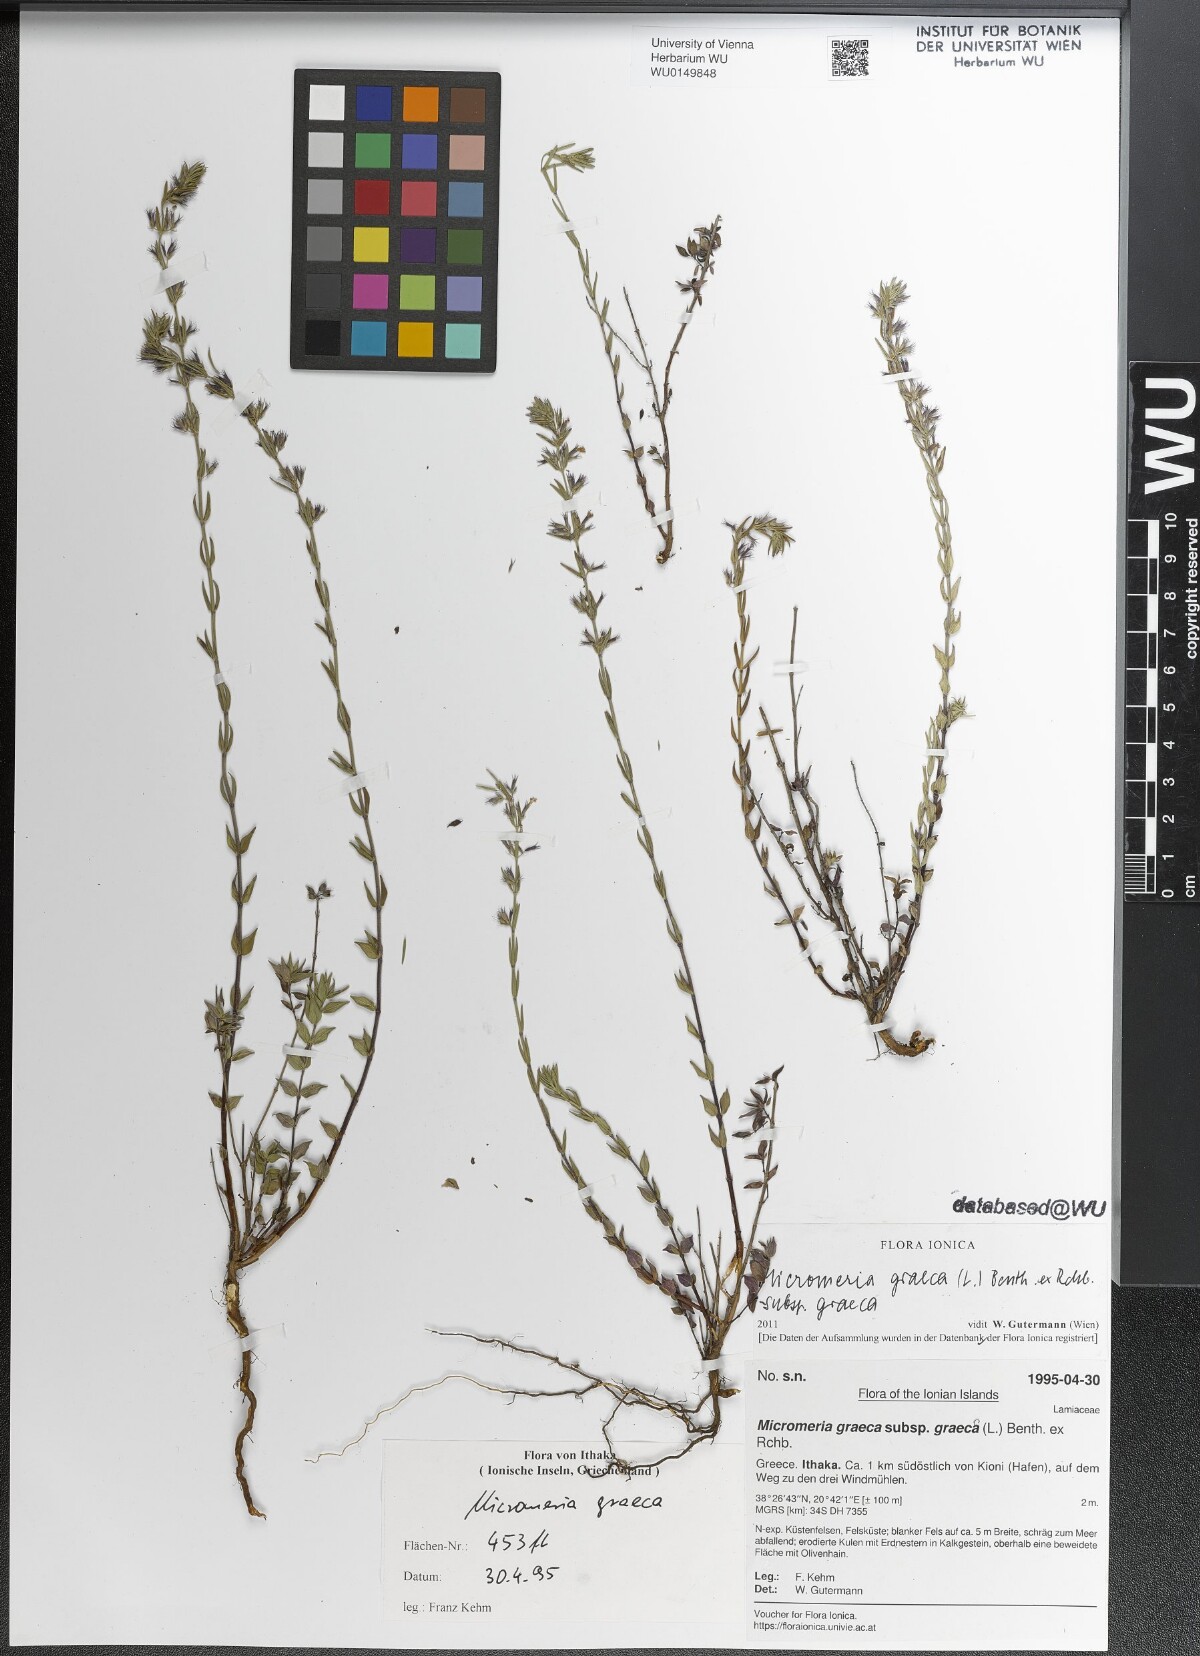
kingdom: Plantae
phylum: Tracheophyta
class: Magnoliopsida
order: Lamiales
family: Lamiaceae
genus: Micromeria
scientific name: Micromeria graeca
